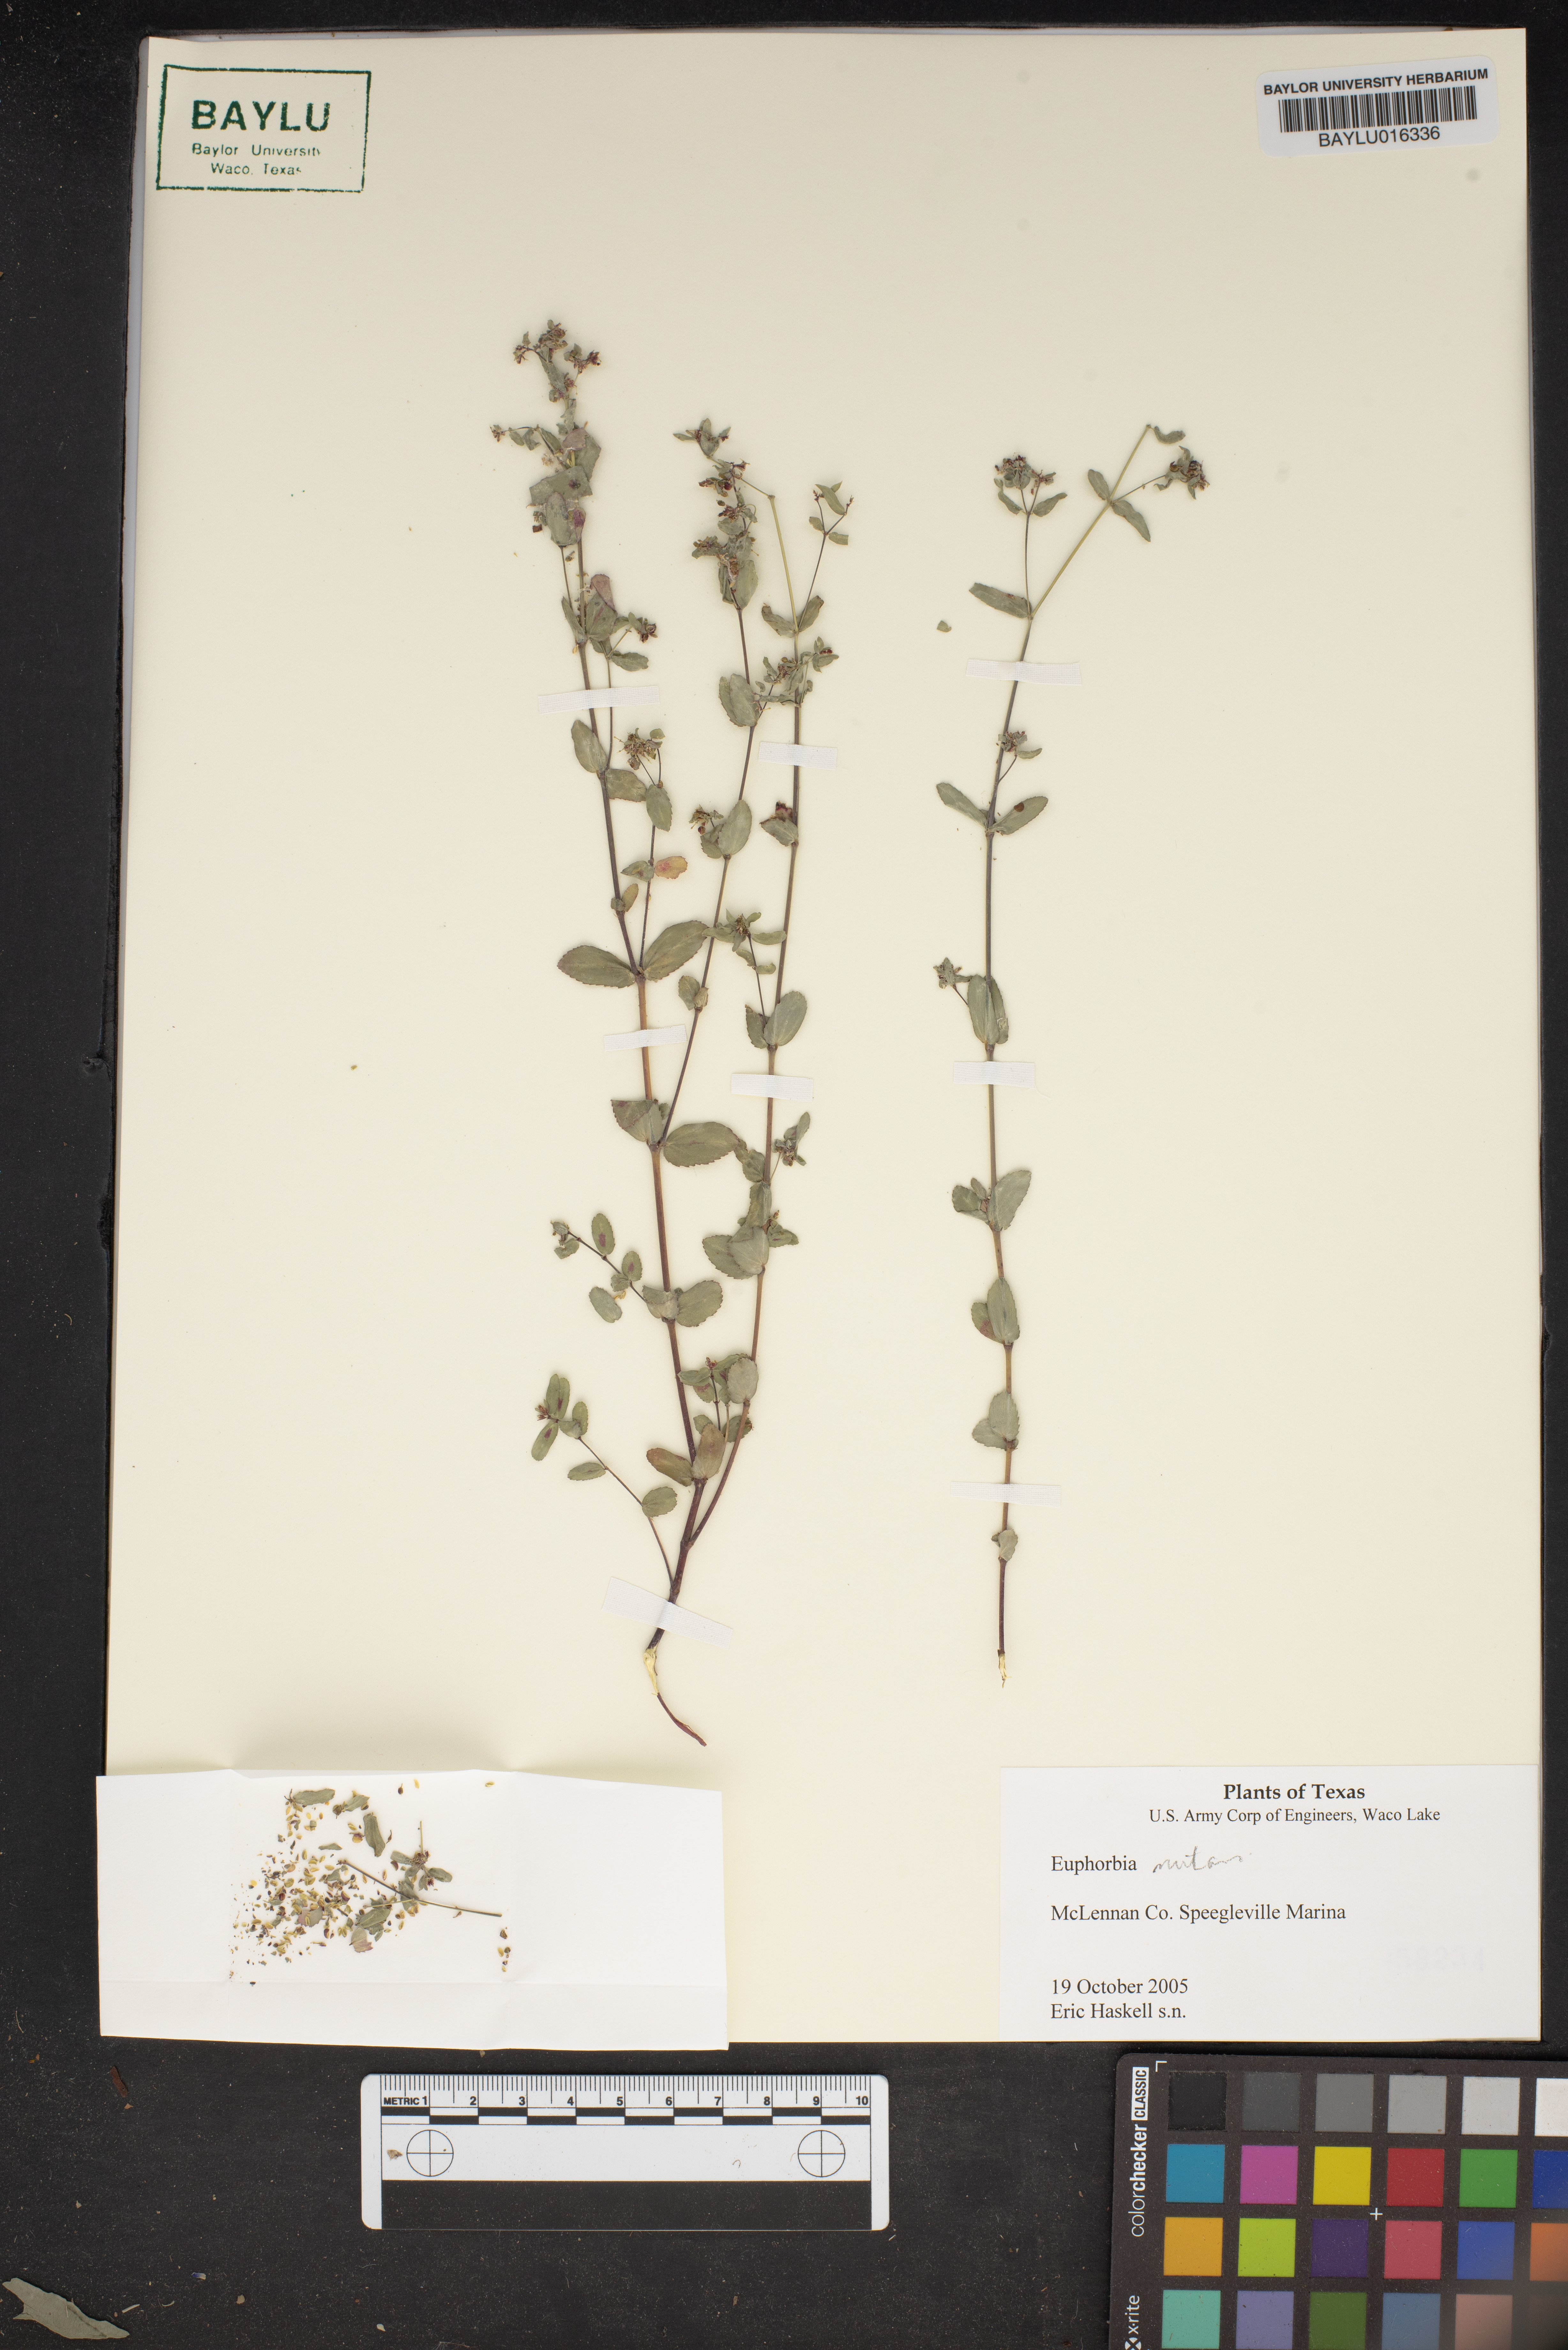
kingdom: Plantae
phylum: Tracheophyta
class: Magnoliopsida
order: Malpighiales
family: Euphorbiaceae
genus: Euphorbia
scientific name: Euphorbia nutans
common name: Eyebane
